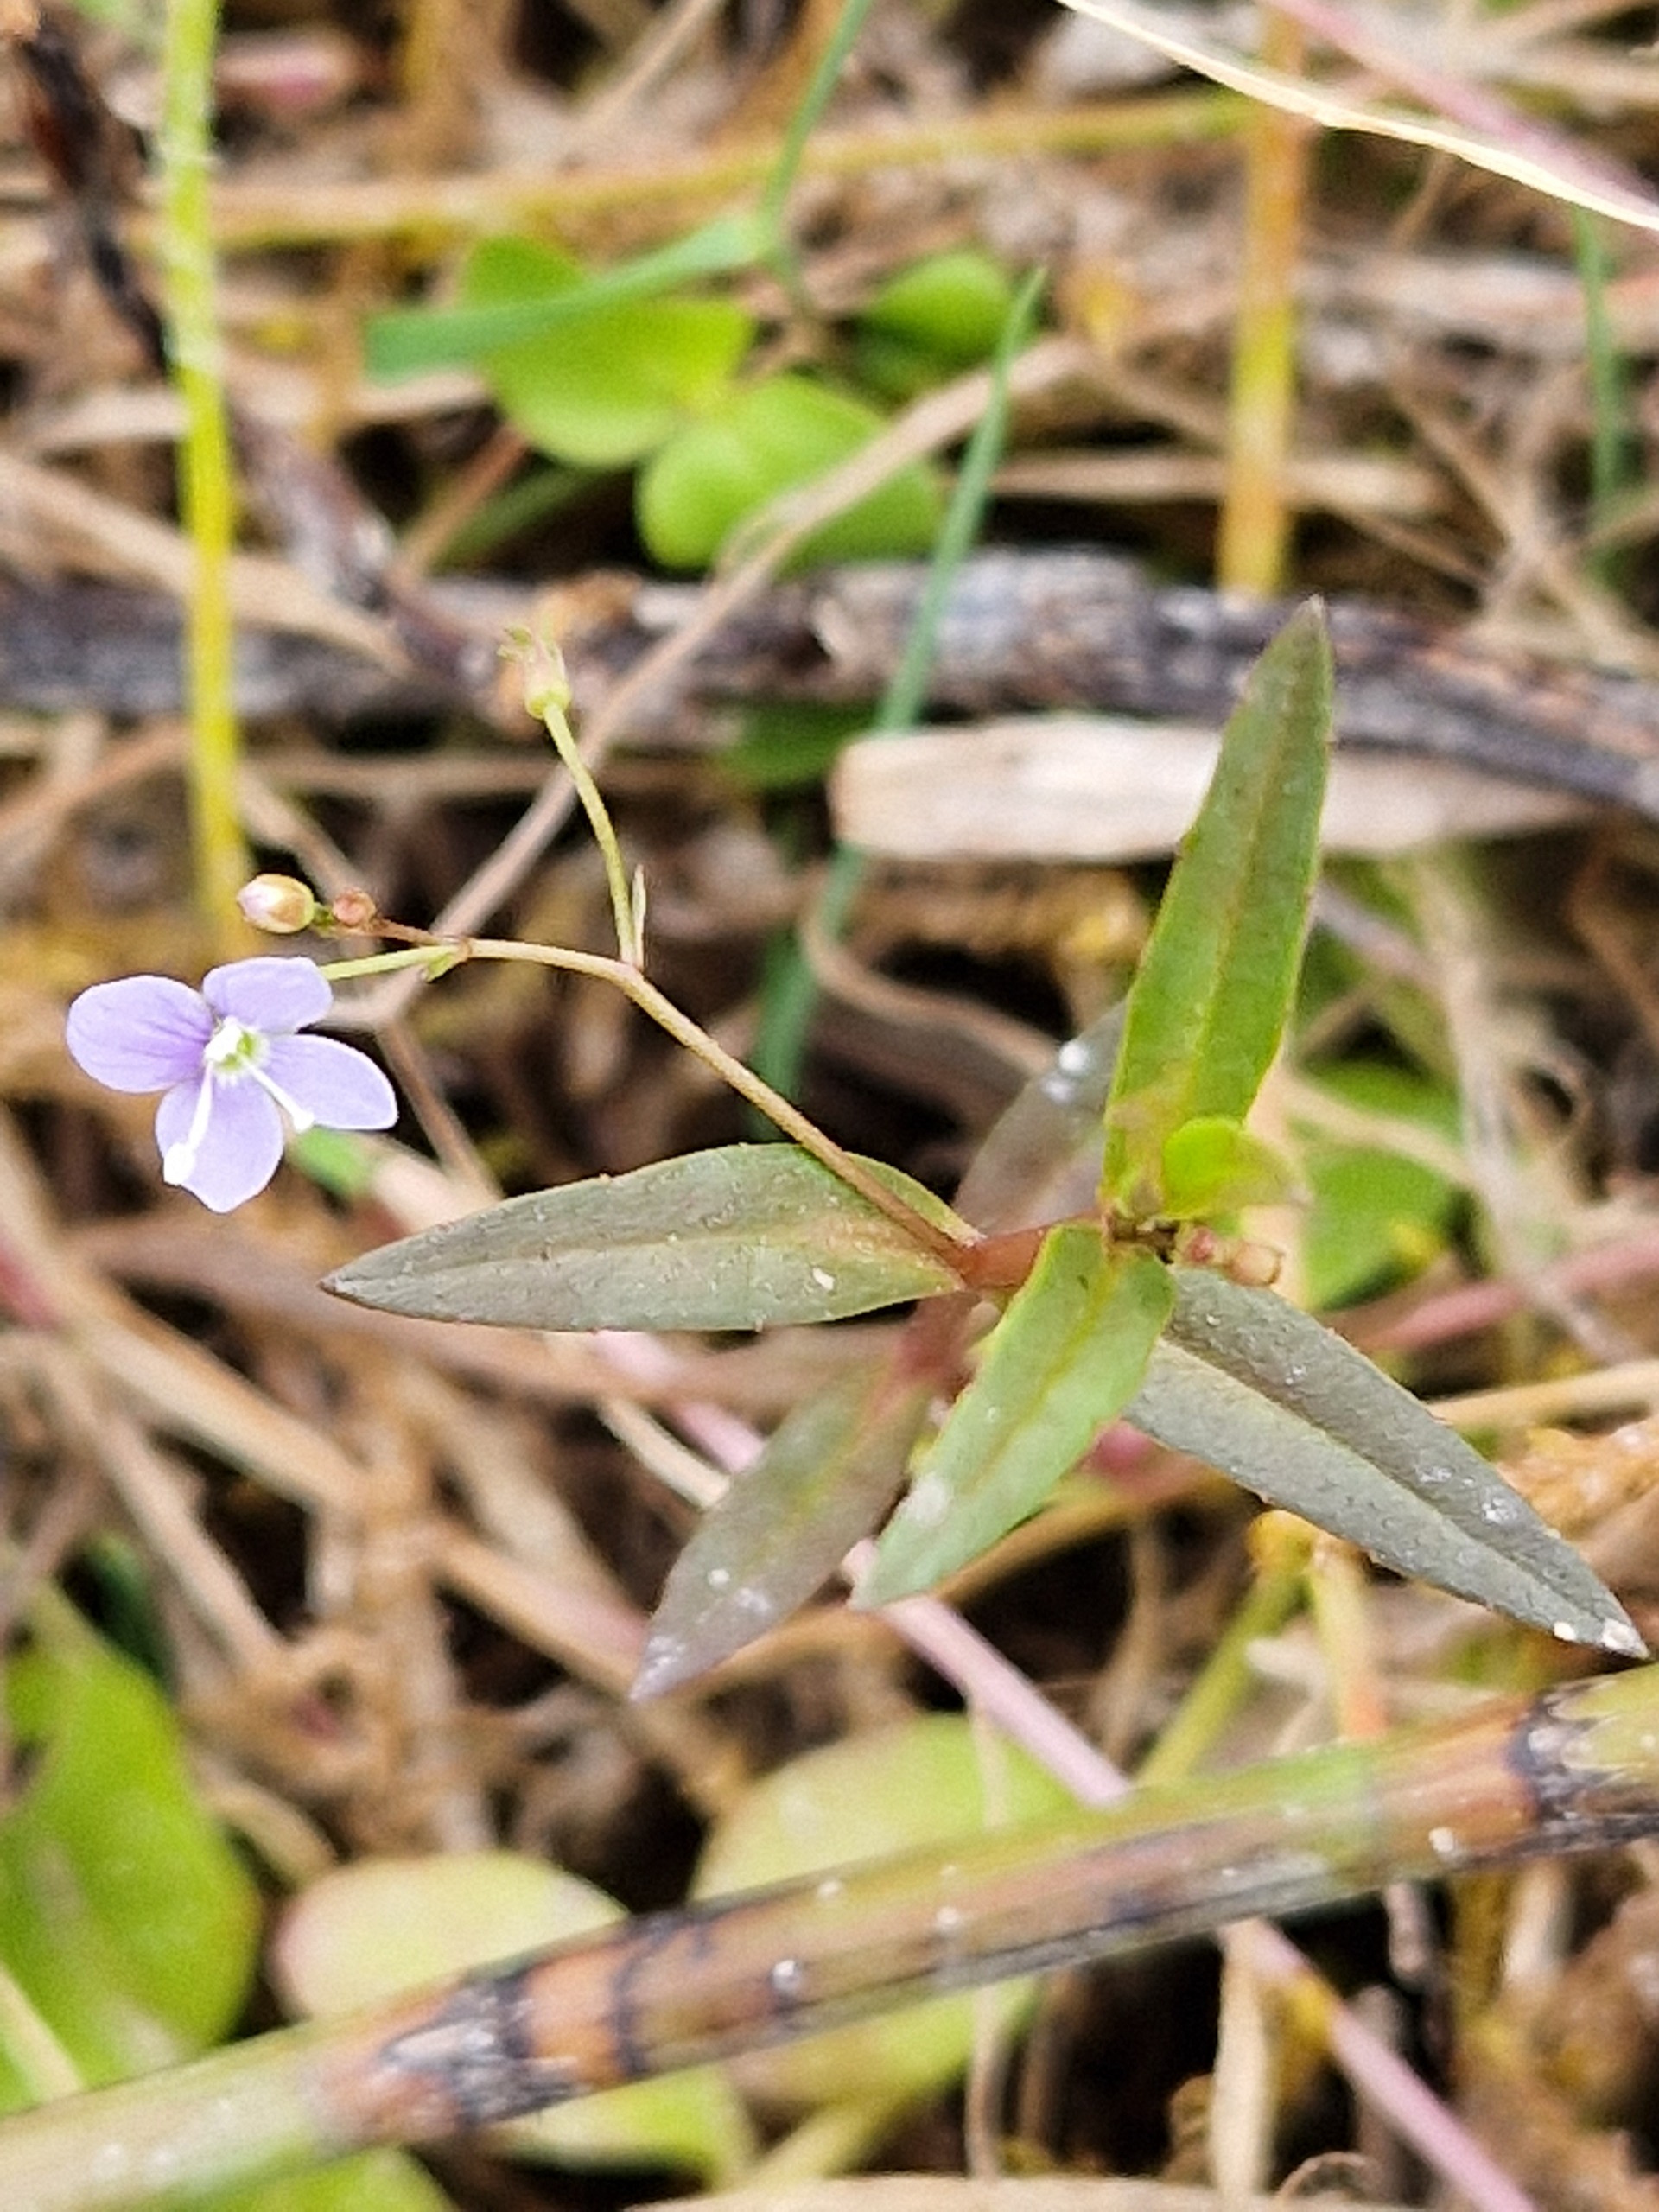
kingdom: Plantae
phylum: Tracheophyta
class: Magnoliopsida
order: Lamiales
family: Plantaginaceae
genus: Veronica
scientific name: Veronica scutellata
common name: Smalbladet ærenpris
